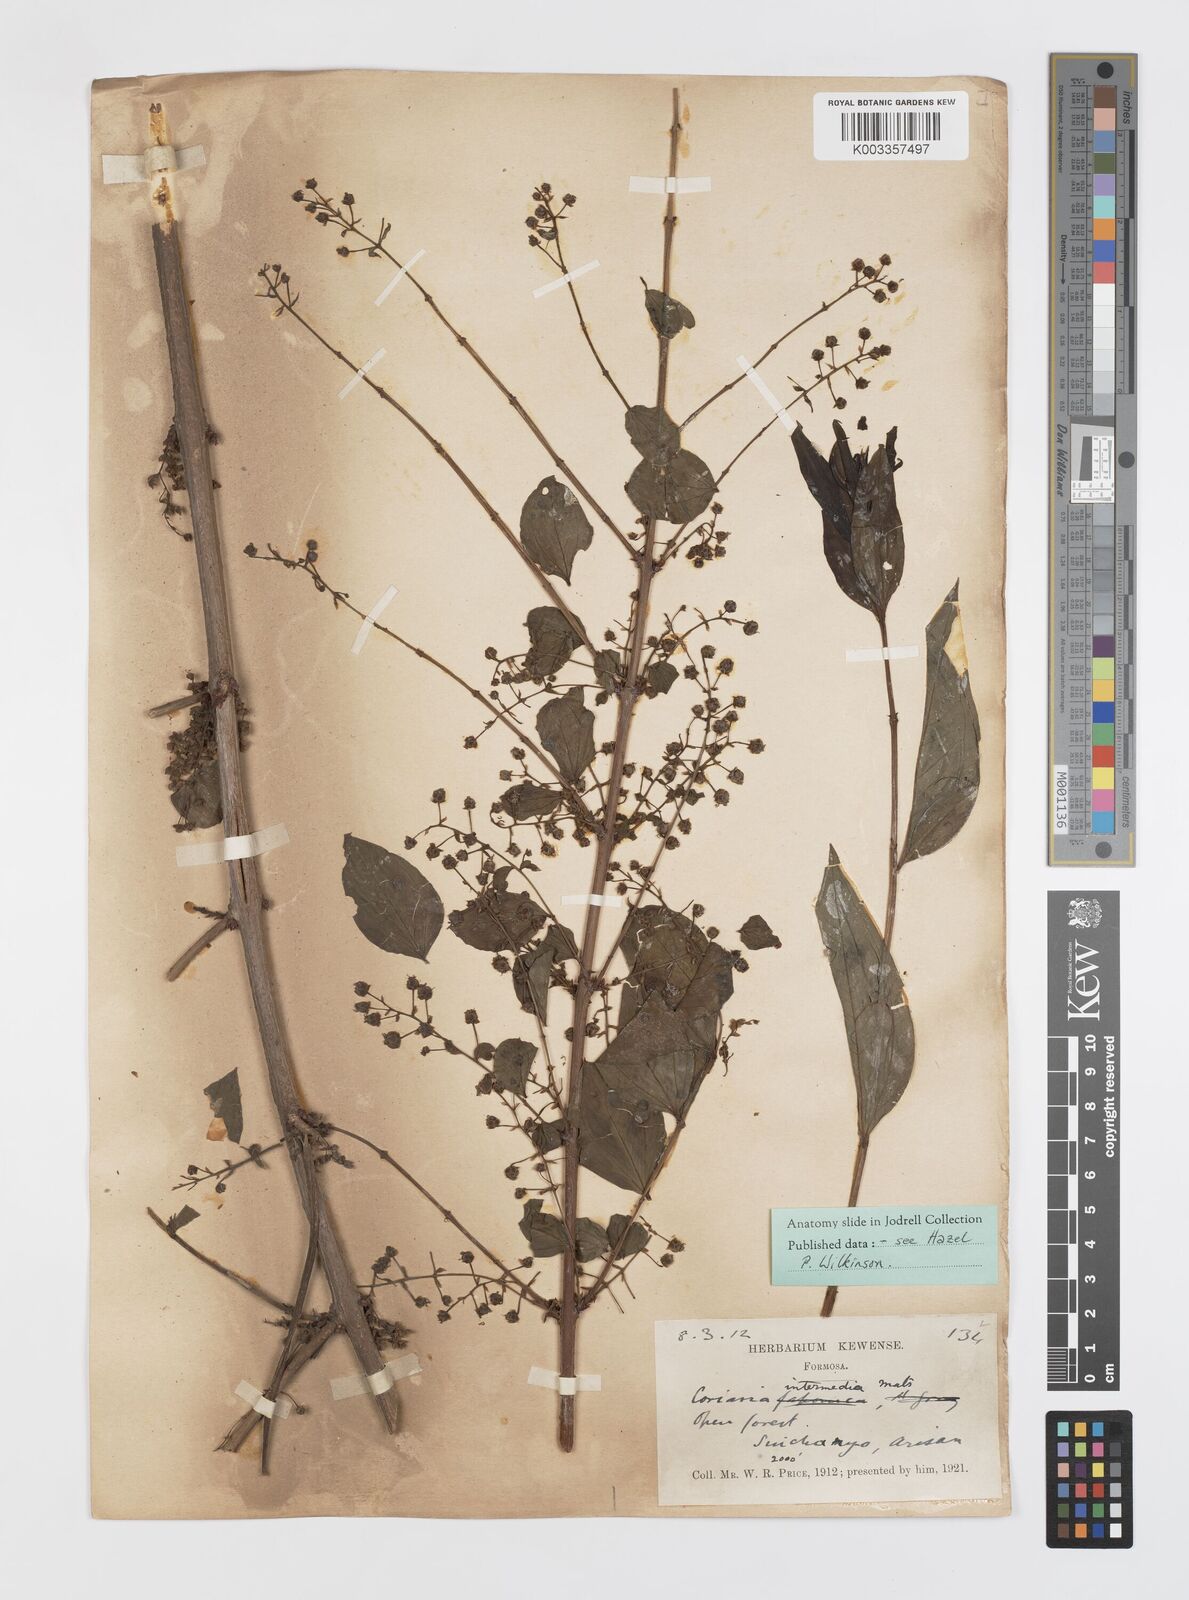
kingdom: Plantae
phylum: Tracheophyta
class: Magnoliopsida
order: Cucurbitales
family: Coriariaceae
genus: Coriaria
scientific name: Coriaria japonica
